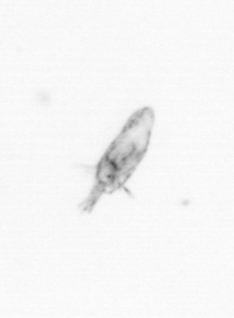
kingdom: Animalia
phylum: Arthropoda
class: Copepoda
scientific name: Copepoda
